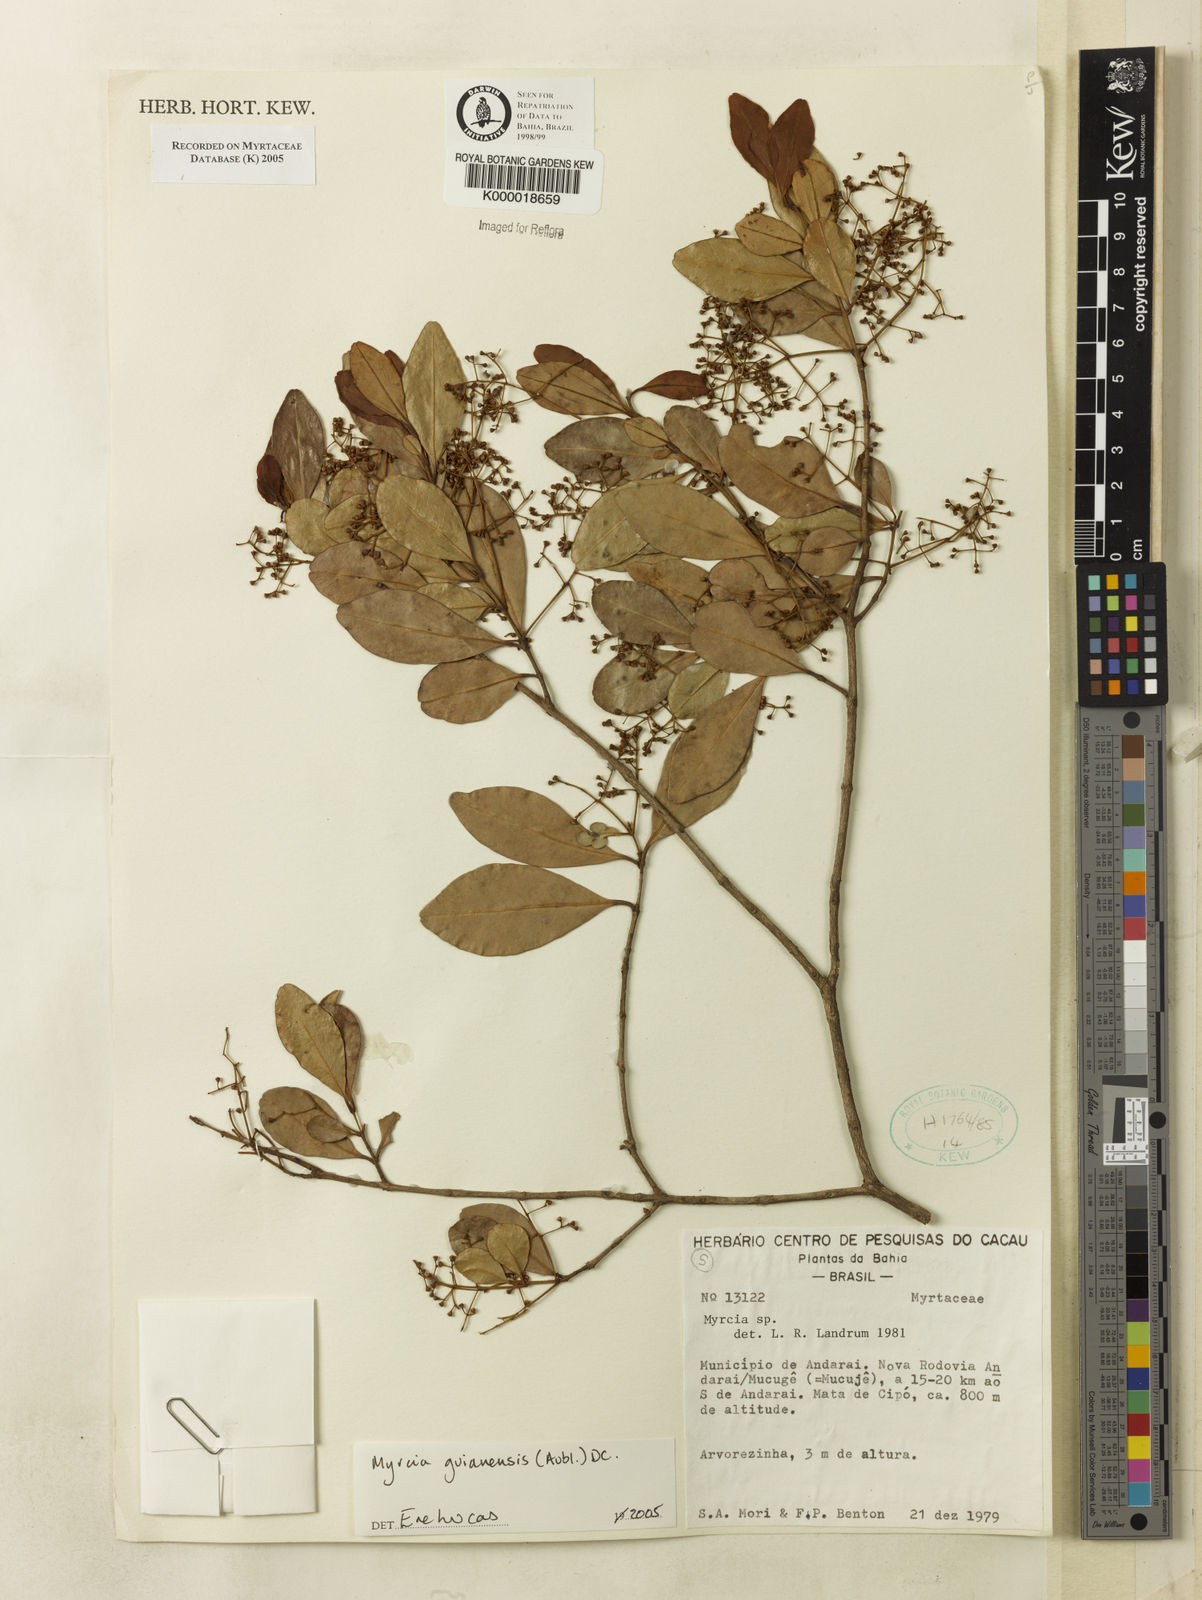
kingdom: Plantae
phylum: Tracheophyta
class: Magnoliopsida
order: Myrtales
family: Myrtaceae
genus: Myrcia
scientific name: Myrcia
